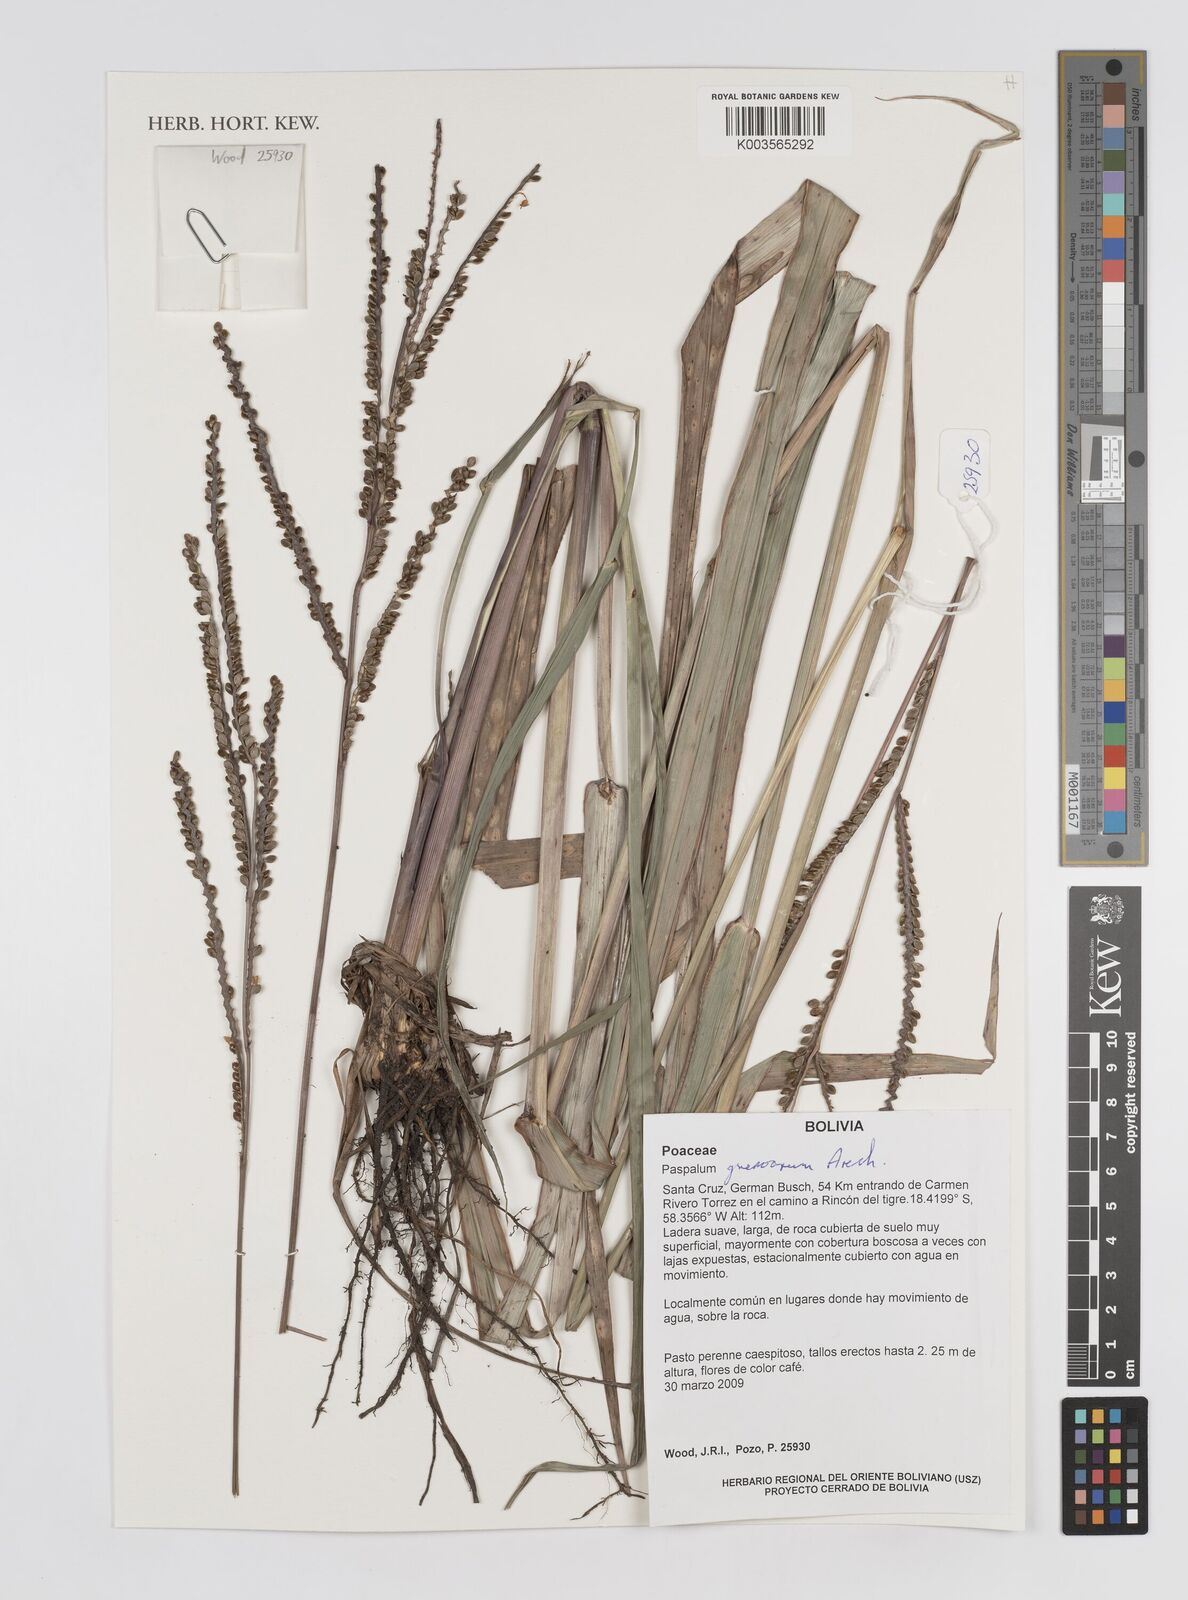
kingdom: Plantae
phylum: Tracheophyta
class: Liliopsida
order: Poales
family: Poaceae
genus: Paspalum
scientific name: Paspalum guenoarum
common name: Wintergreen paspalum
